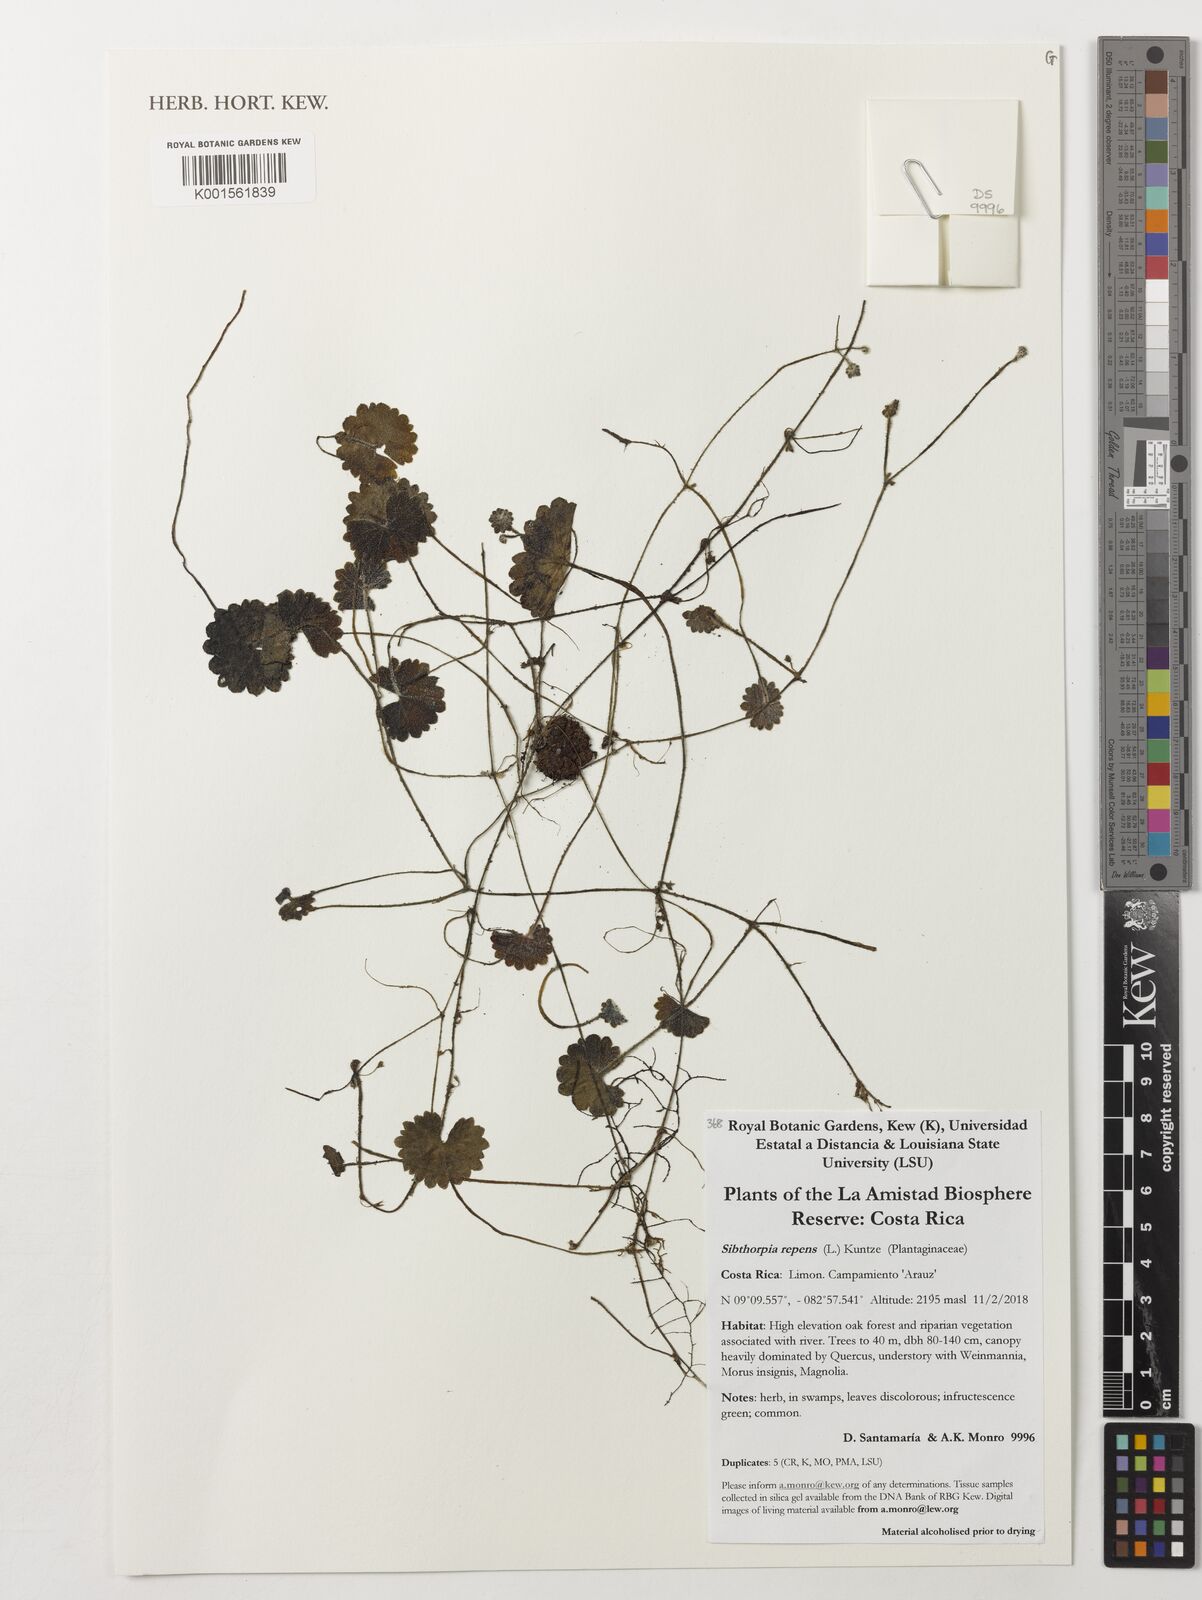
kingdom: Plantae
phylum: Tracheophyta
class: Magnoliopsida
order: Lamiales
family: Plantaginaceae
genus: Sibthorpia
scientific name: Sibthorpia repens
